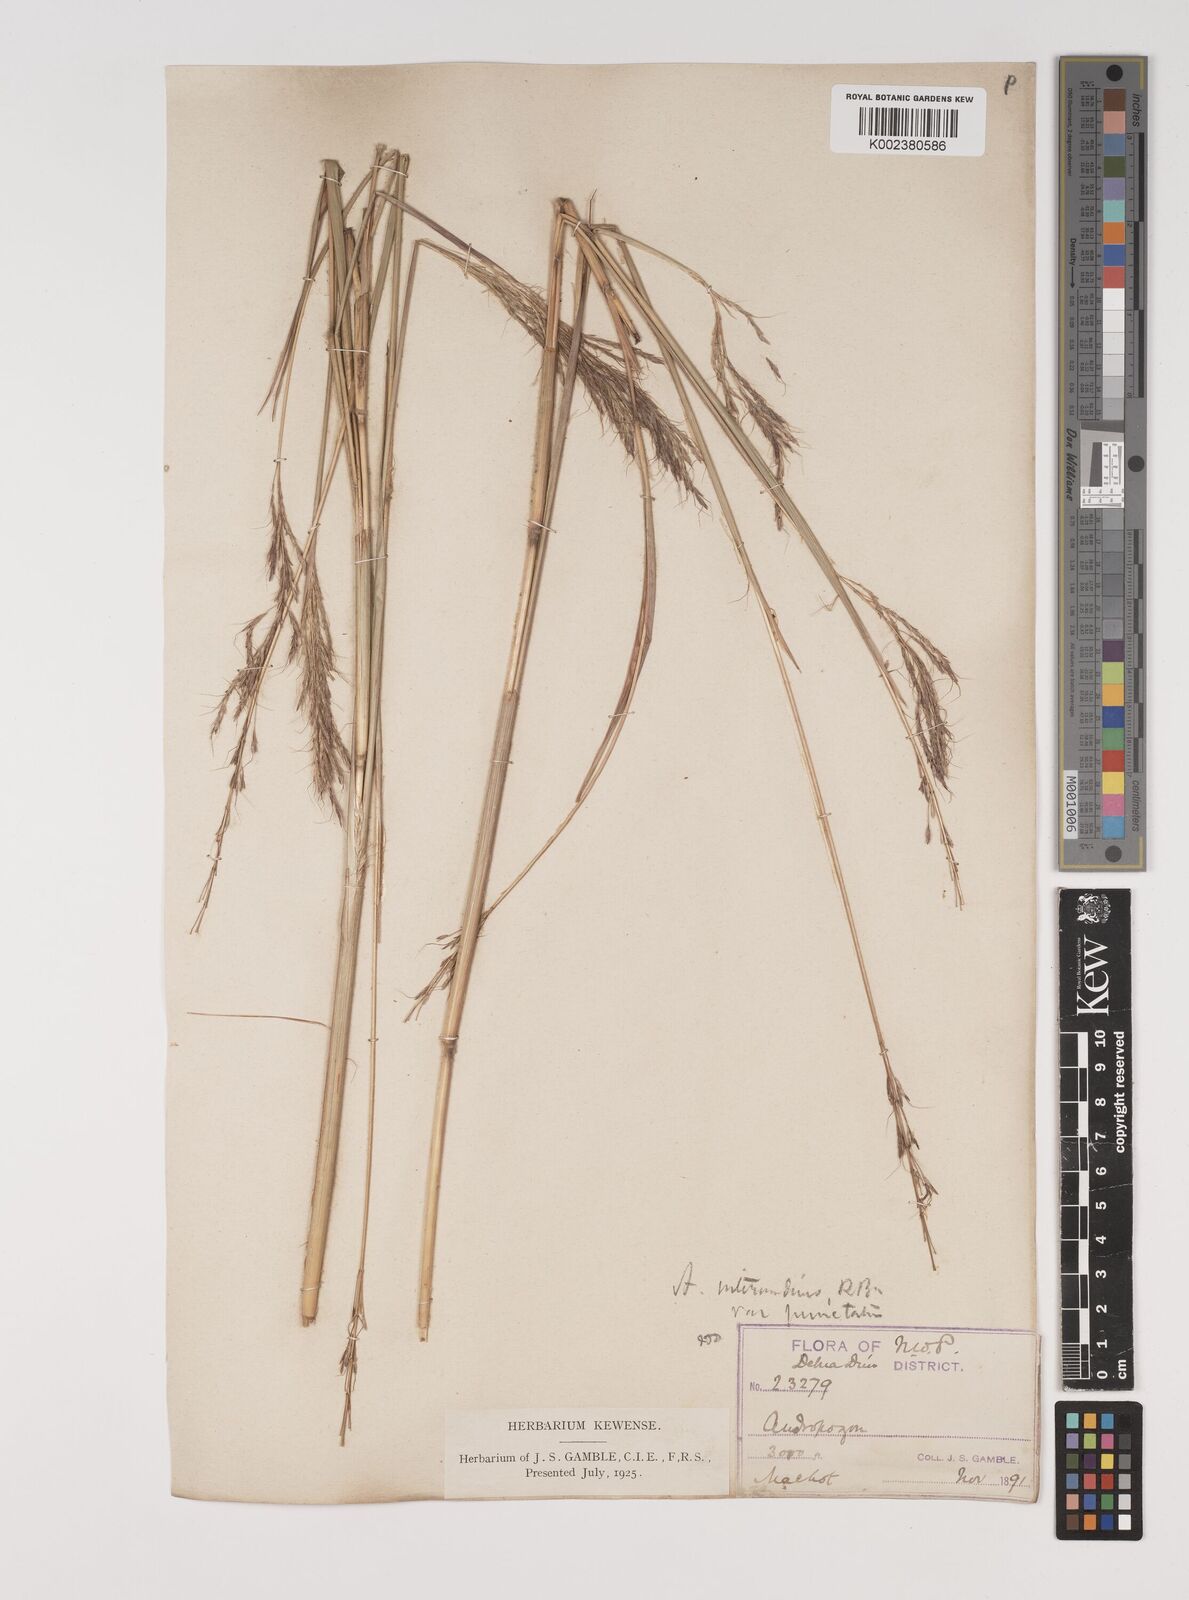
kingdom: Plantae
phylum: Tracheophyta
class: Liliopsida
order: Poales
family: Poaceae
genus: Bothriochloa
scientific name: Bothriochloa bladhii
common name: Caucasian bluestem
